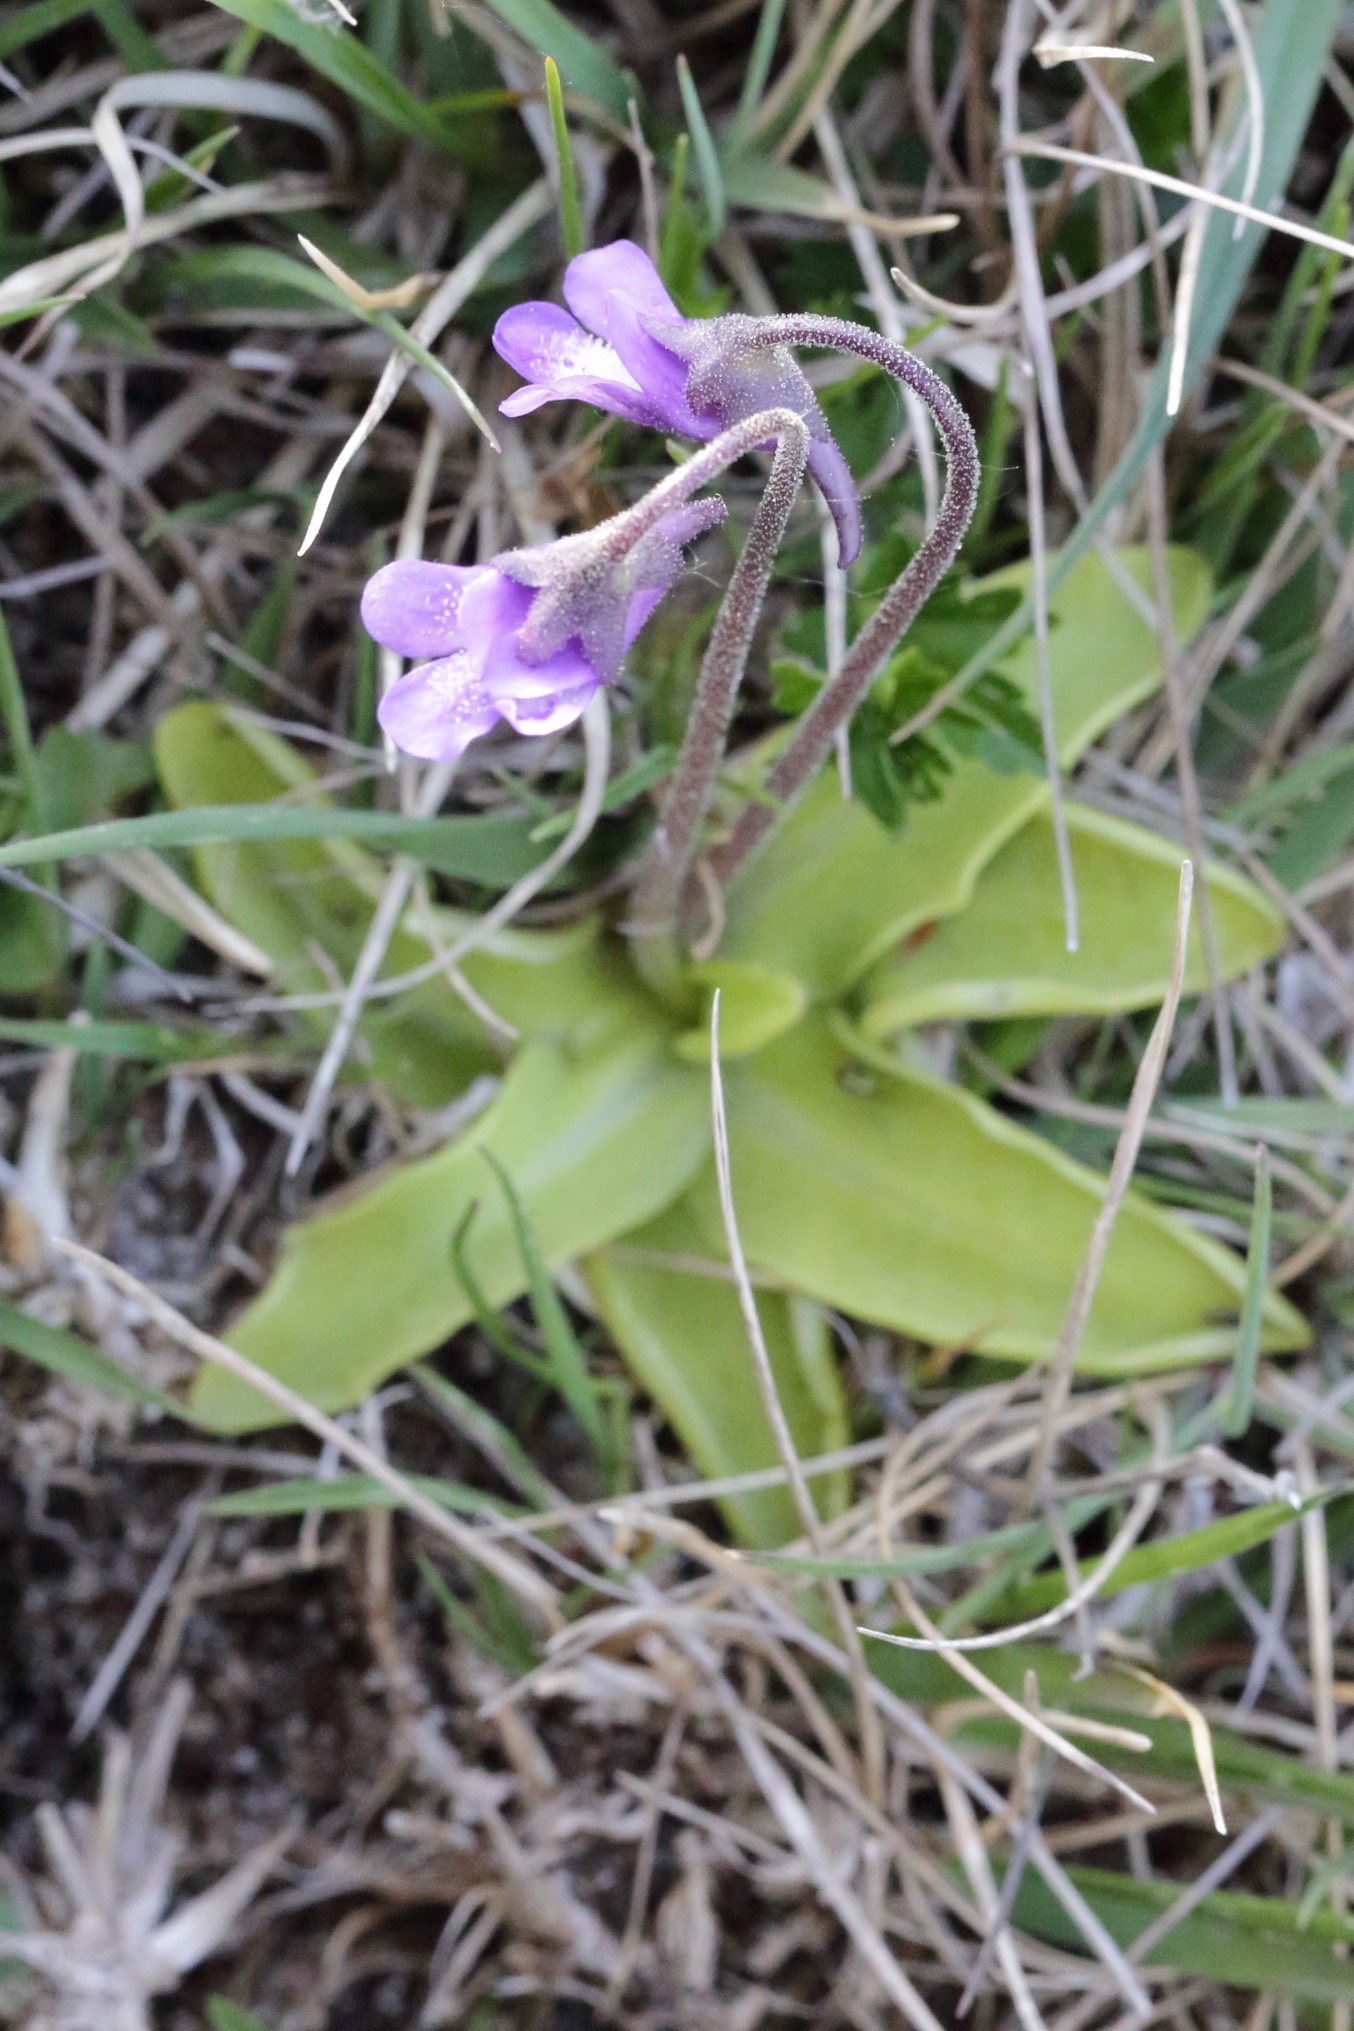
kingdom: Plantae
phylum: Tracheophyta
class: Magnoliopsida
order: Lamiales
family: Lentibulariaceae
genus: Pinguicula
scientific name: Pinguicula vulgaris
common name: Vibefedt
